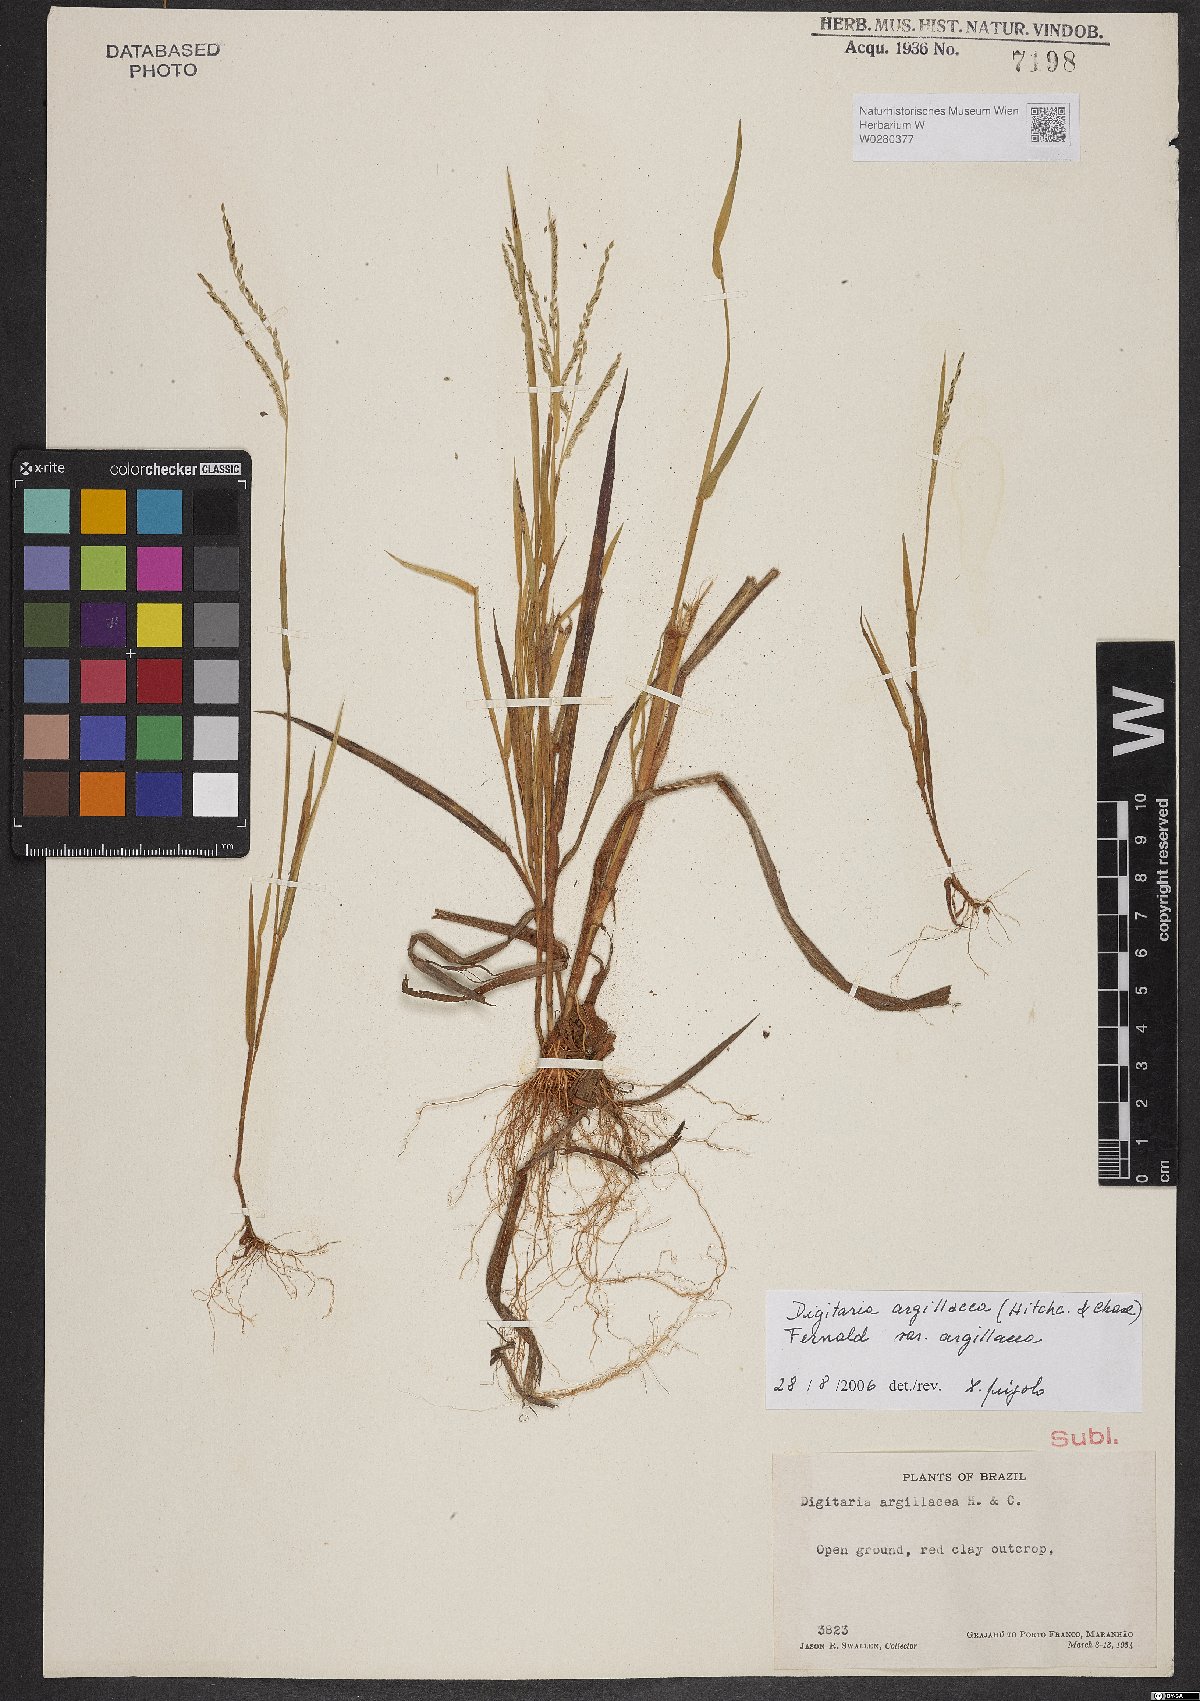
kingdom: Plantae
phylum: Tracheophyta
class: Liliopsida
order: Poales
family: Poaceae
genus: Digitaria
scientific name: Digitaria argillacea
